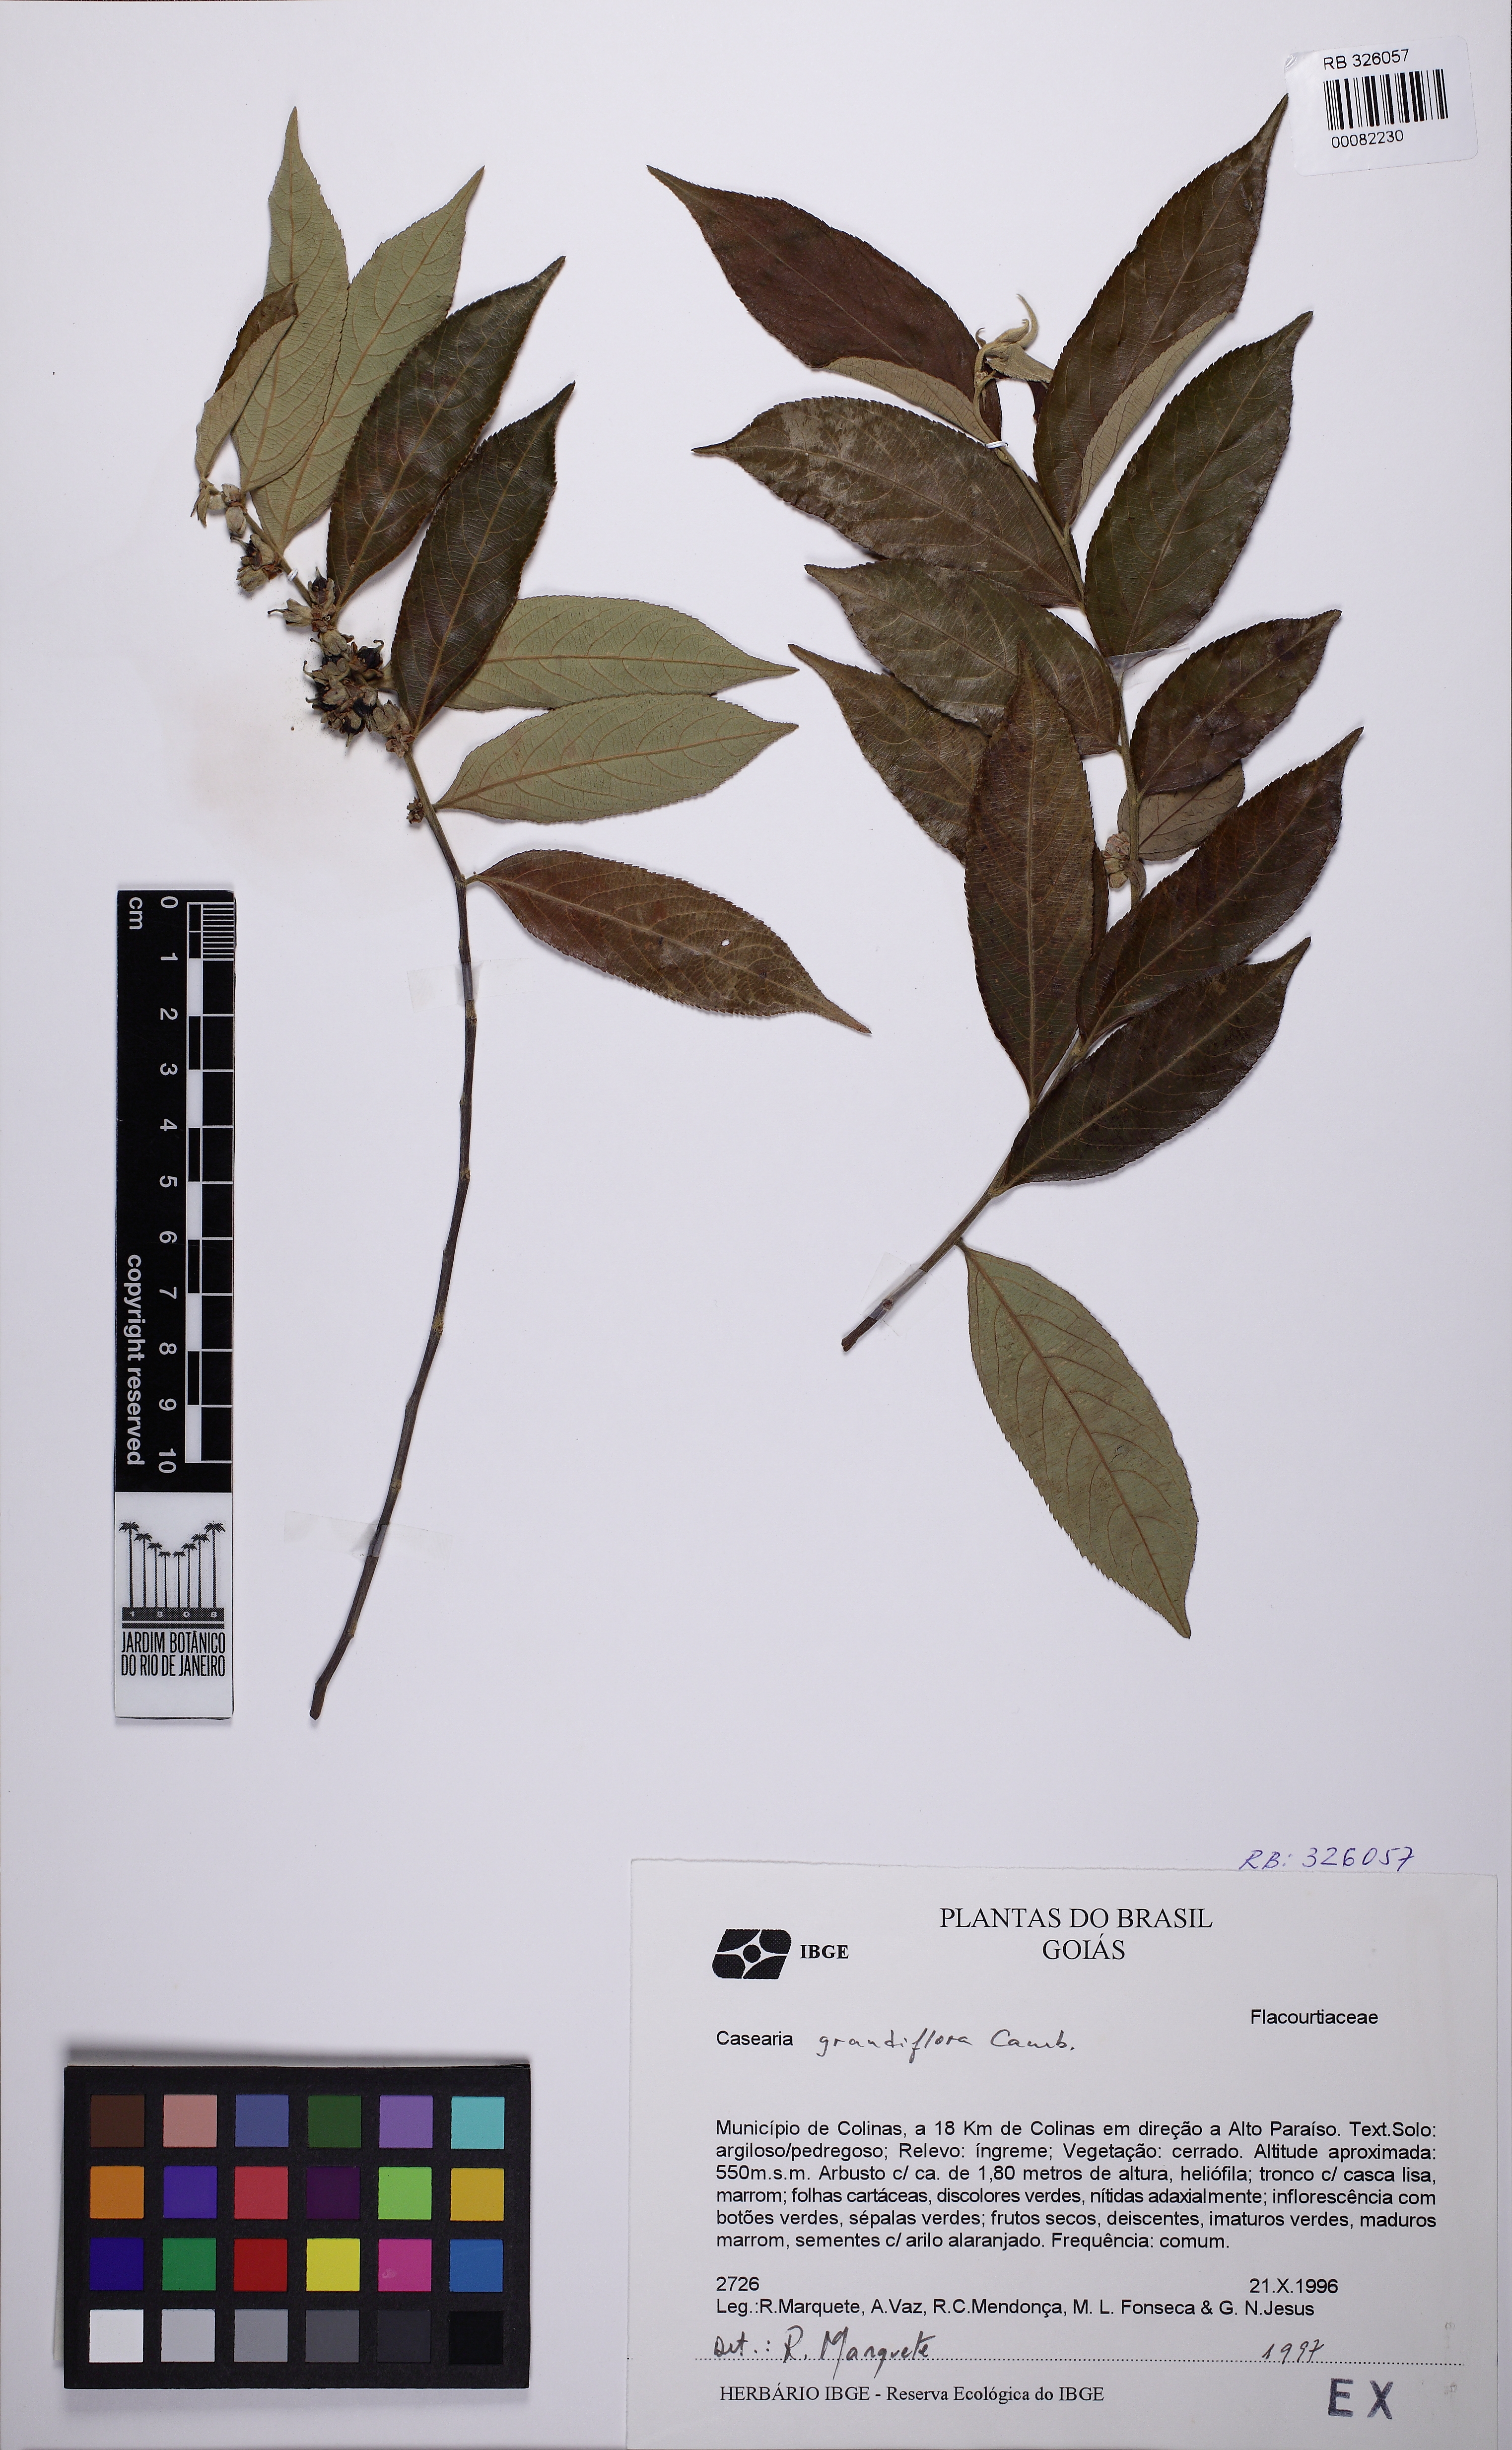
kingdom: Plantae
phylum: Tracheophyta
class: Magnoliopsida
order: Malpighiales
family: Salicaceae
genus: Casearia
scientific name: Casearia grandiflora
